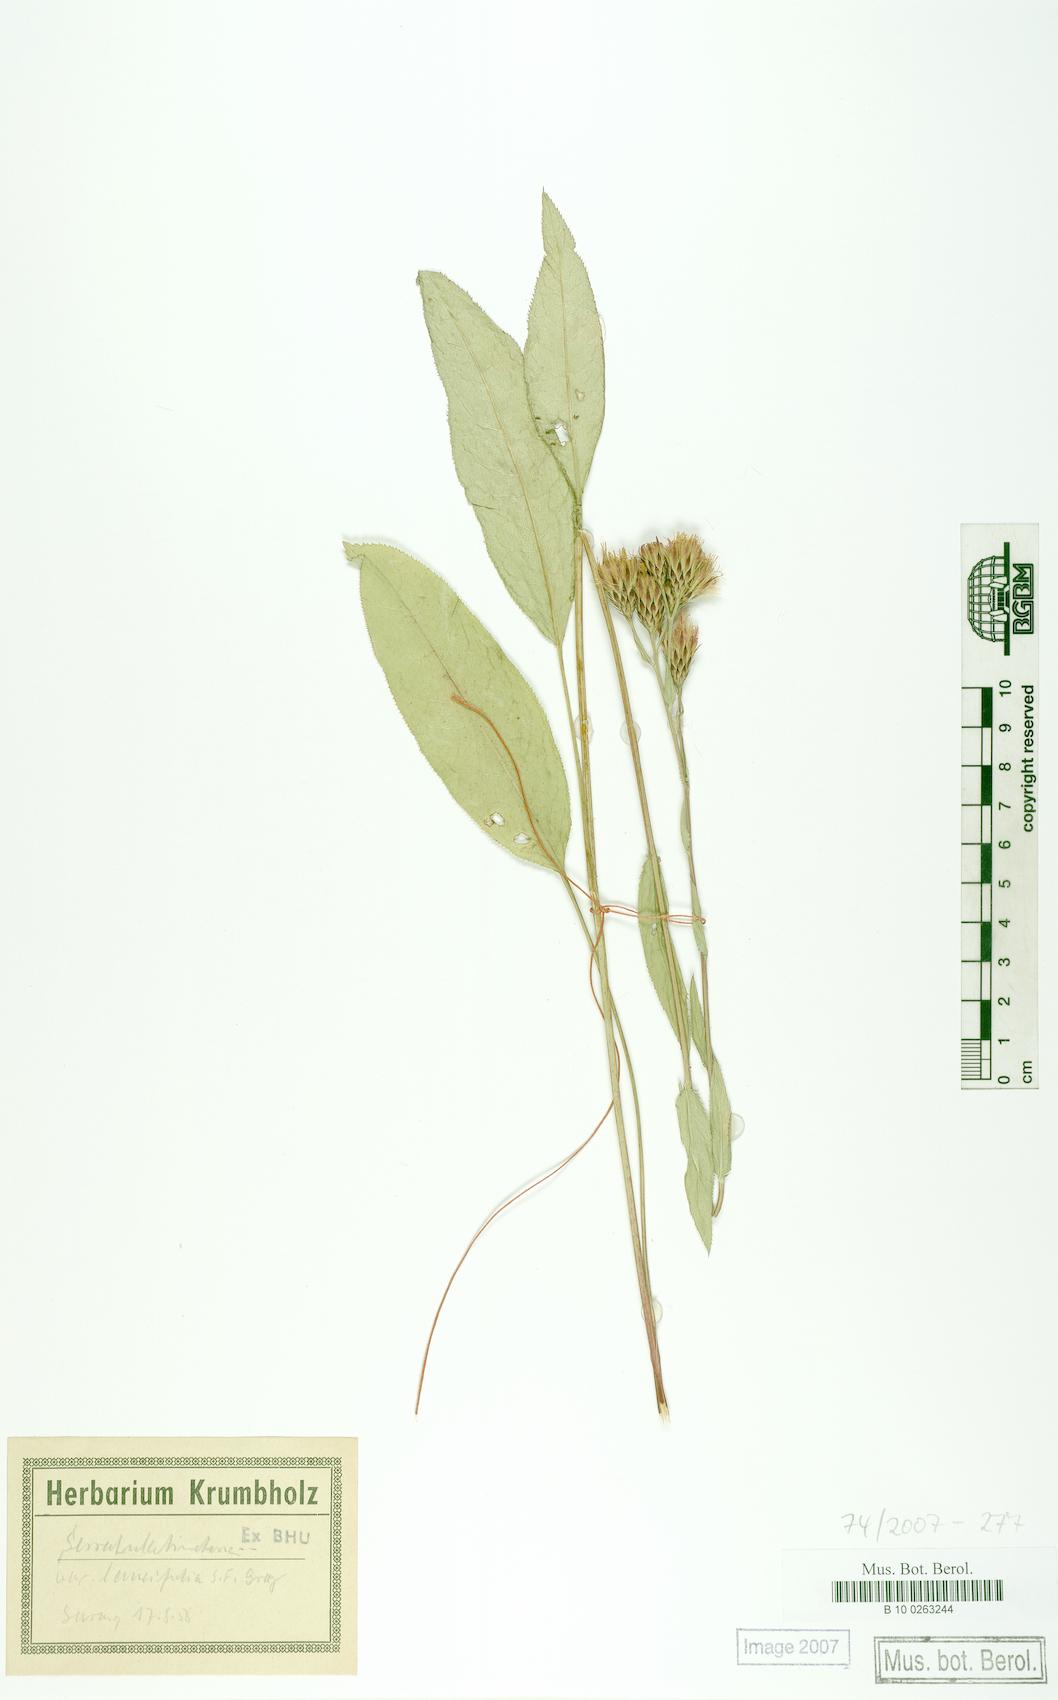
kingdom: Plantae
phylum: Tracheophyta
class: Magnoliopsida
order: Asterales
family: Asteraceae
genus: Serratula
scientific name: Serratula tinctoria
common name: Saw-wort
